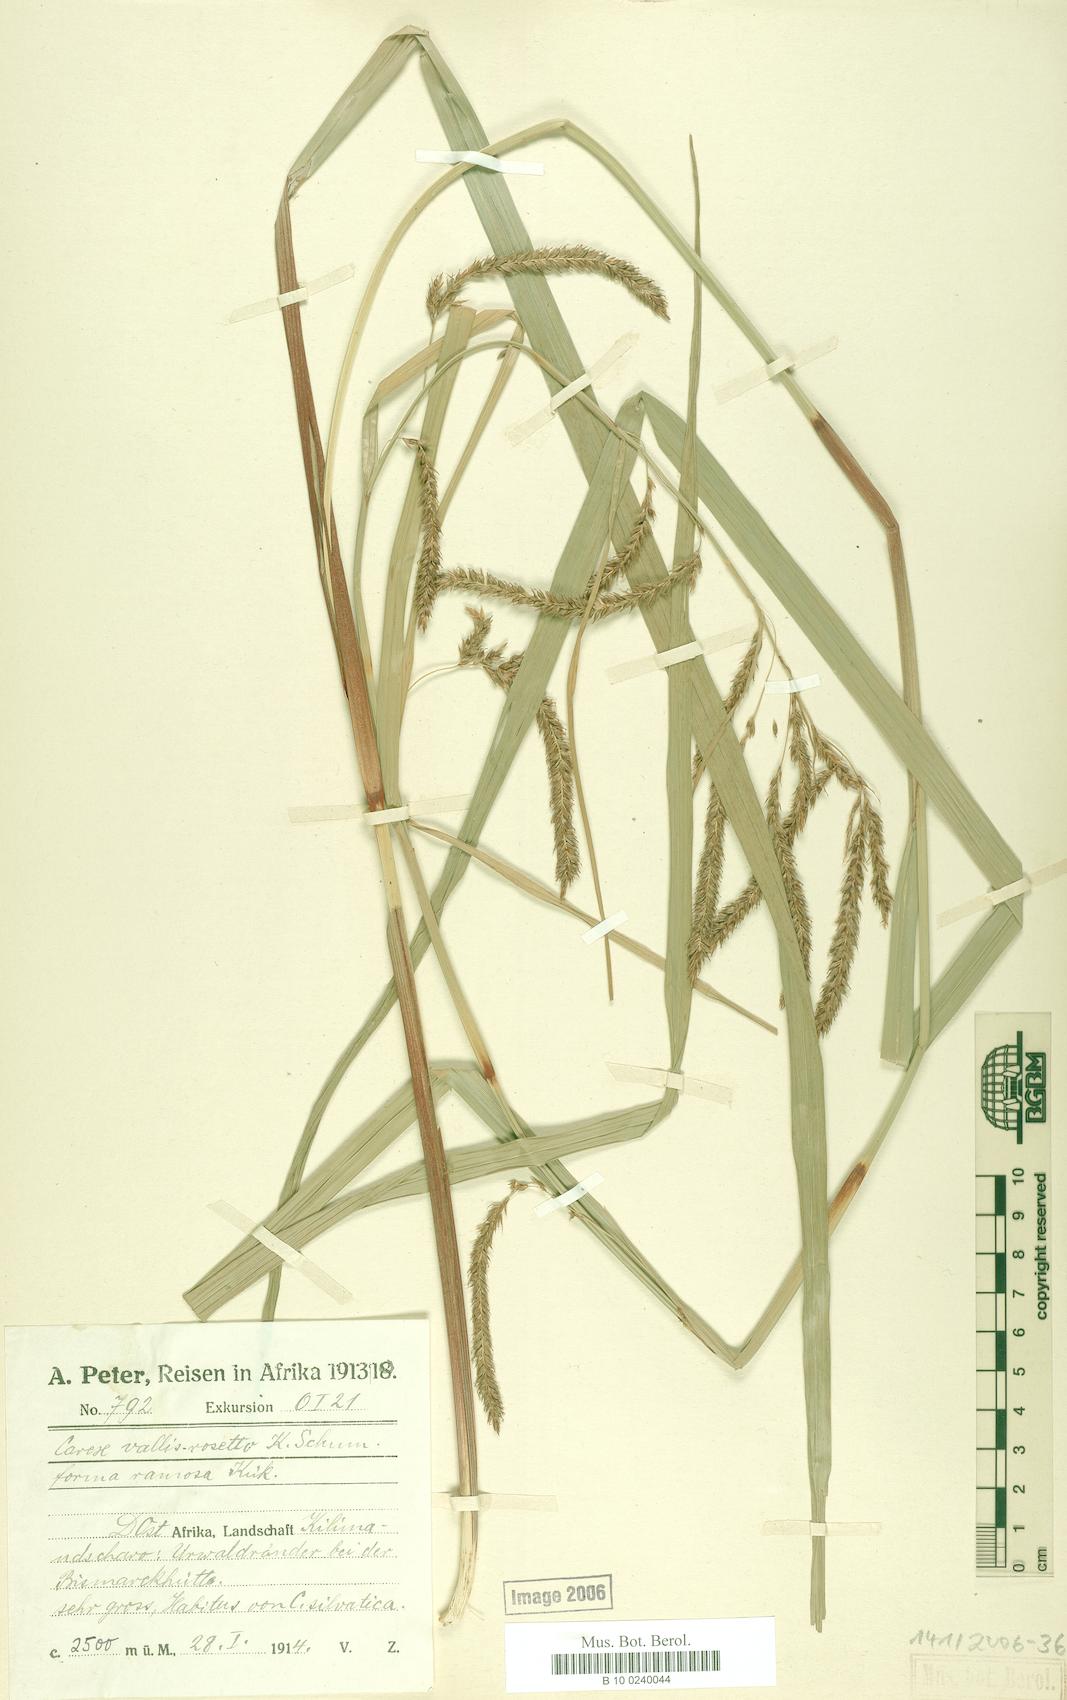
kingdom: Plantae
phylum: Tracheophyta
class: Liliopsida
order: Poales
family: Cyperaceae
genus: Carex
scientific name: Carex greenwayi
